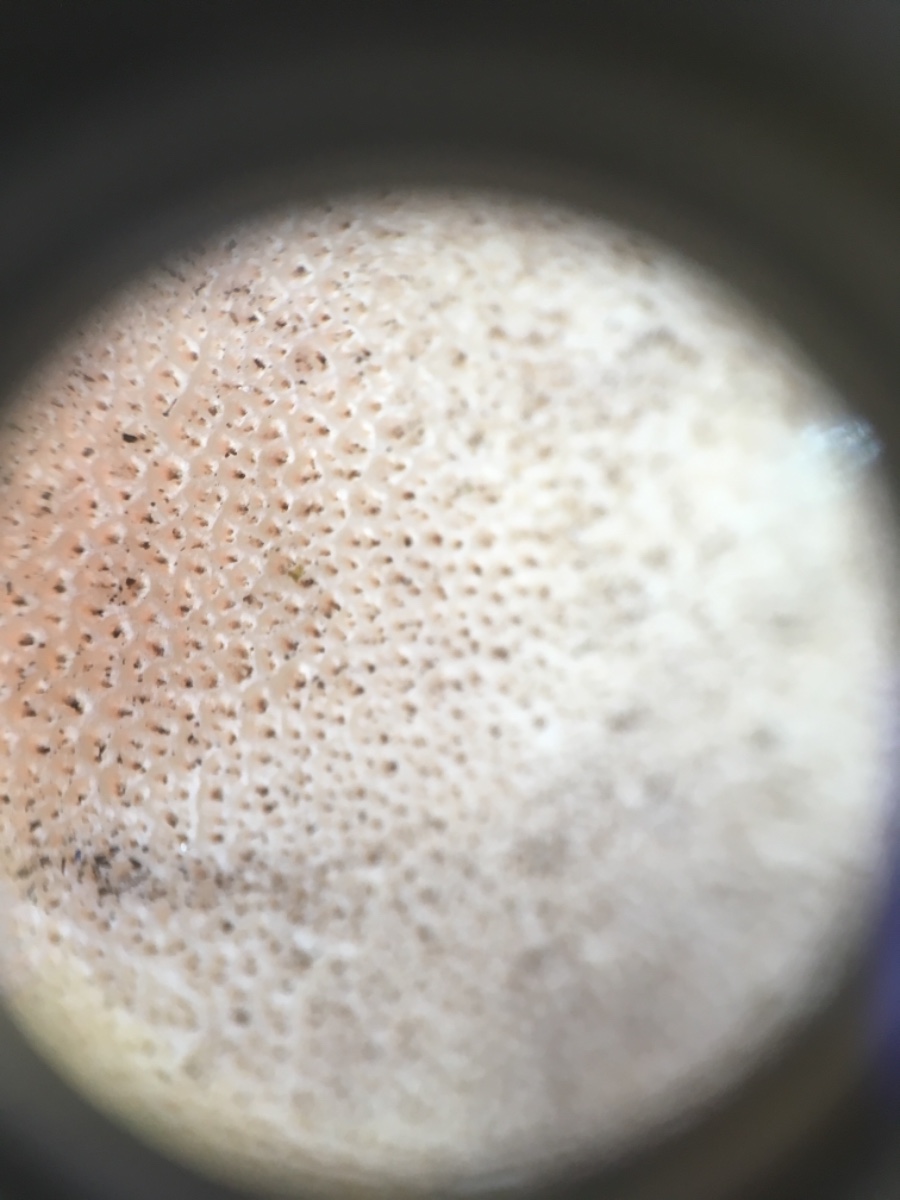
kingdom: Fungi
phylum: Basidiomycota
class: Agaricomycetes
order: Agaricales
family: Agaricaceae
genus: Lycoperdon
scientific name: Lycoperdon
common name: støvbold
